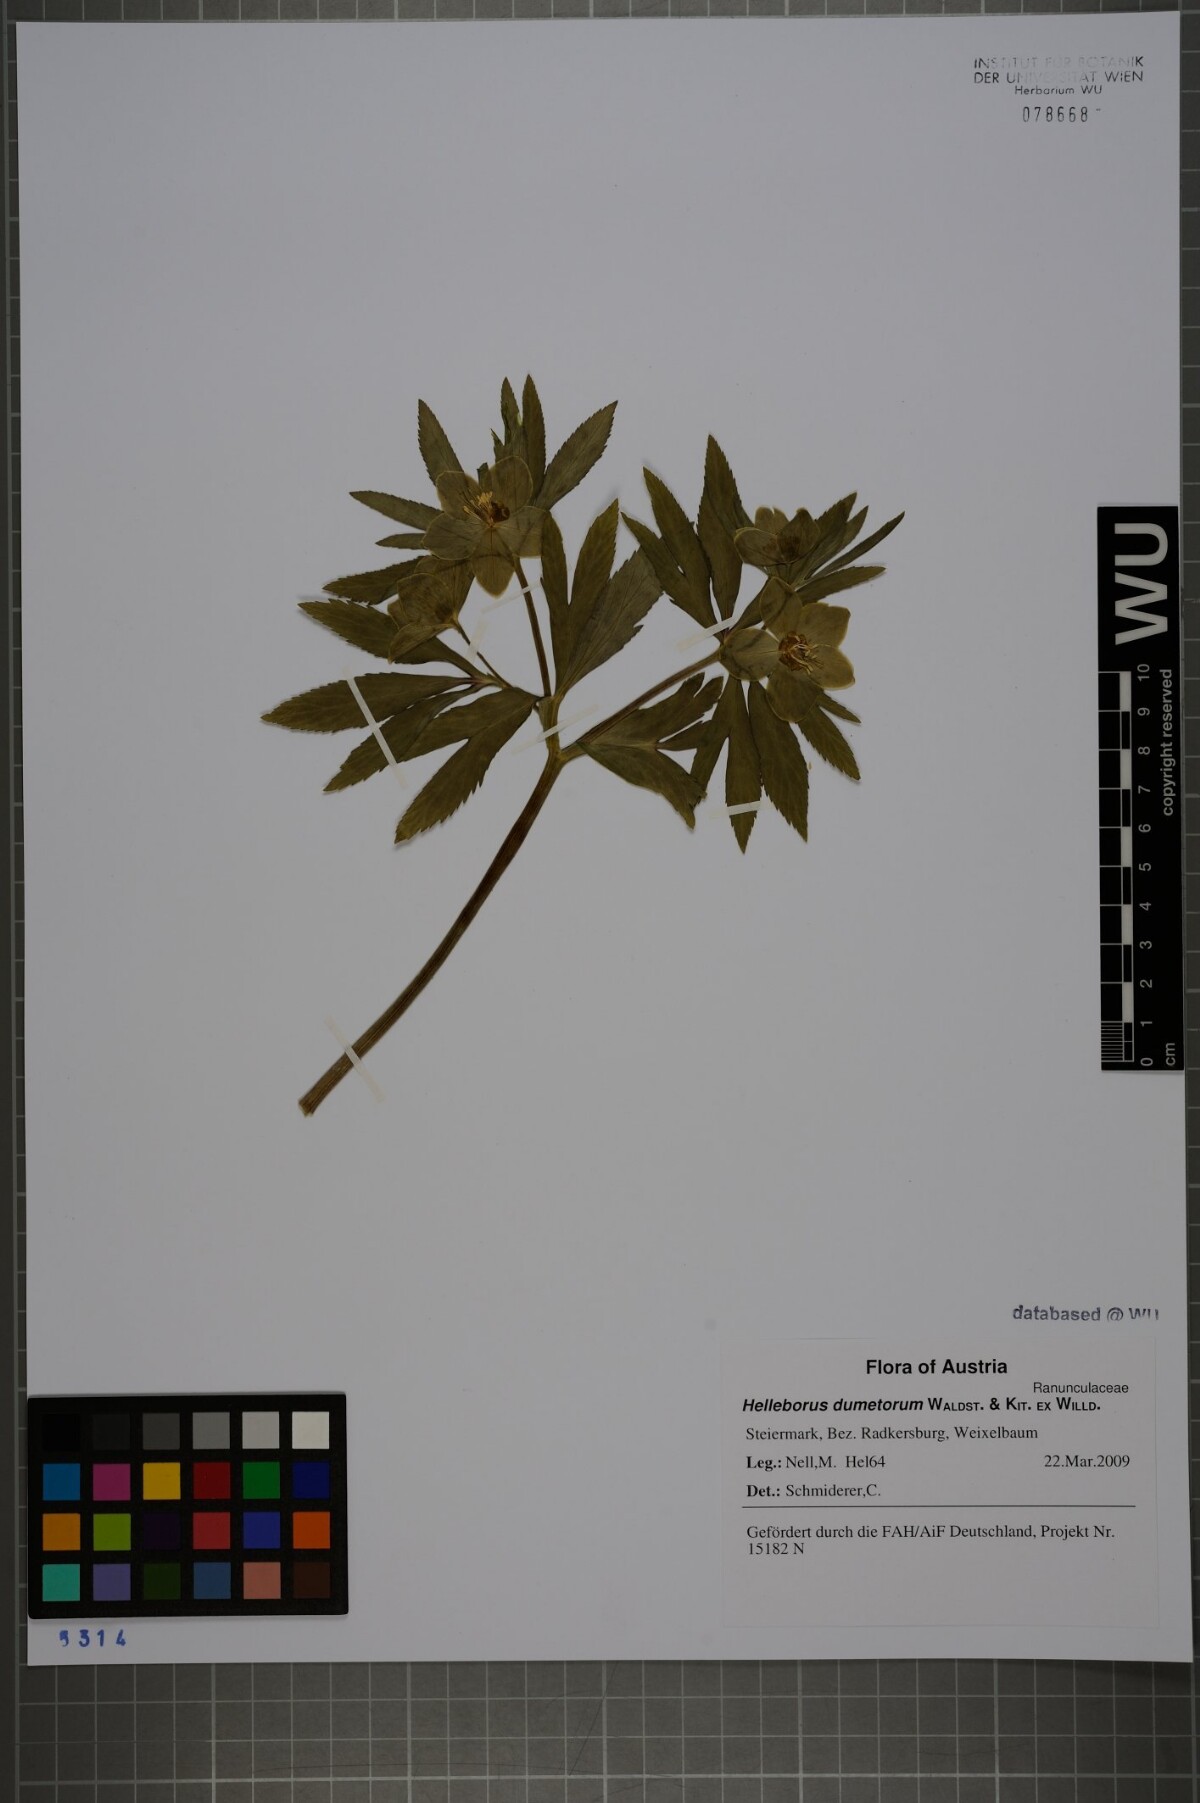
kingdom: Plantae
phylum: Tracheophyta
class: Magnoliopsida
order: Ranunculales
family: Ranunculaceae
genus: Helleborus
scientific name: Helleborus dumetorum
